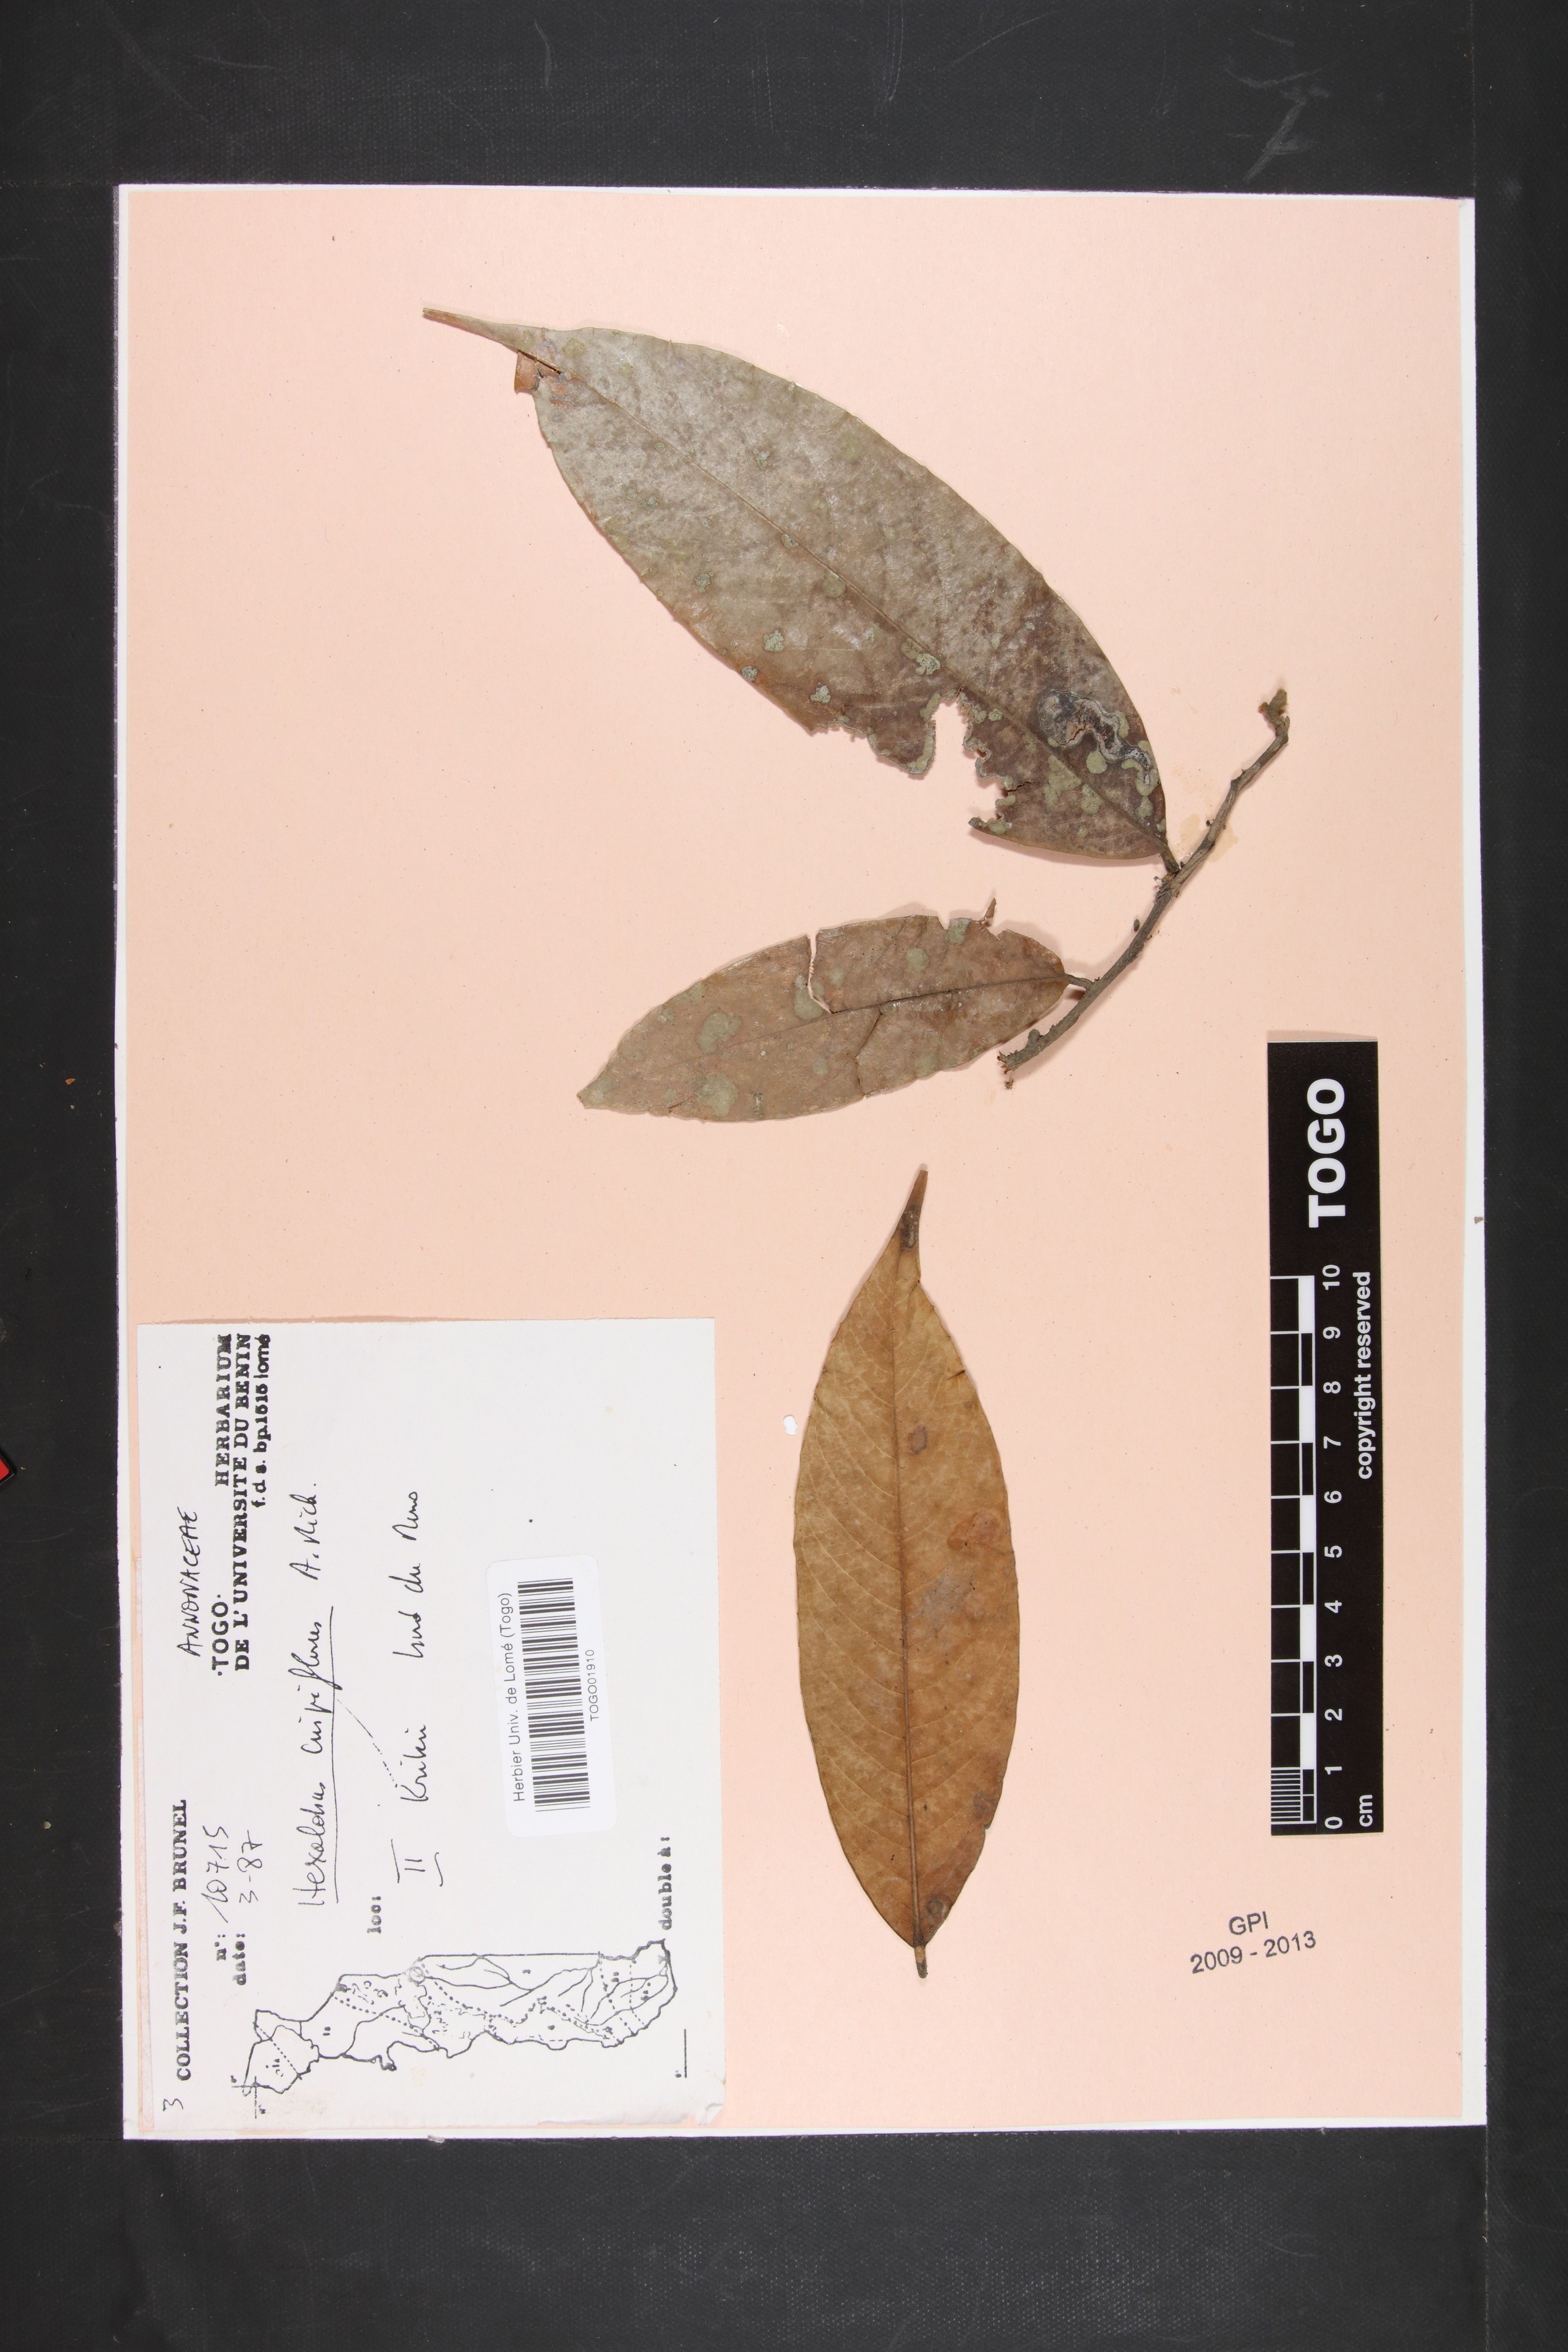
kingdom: Plantae
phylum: Tracheophyta
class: Magnoliopsida
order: Magnoliales
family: Annonaceae
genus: Hexalobus
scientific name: Hexalobus crispiflorus
